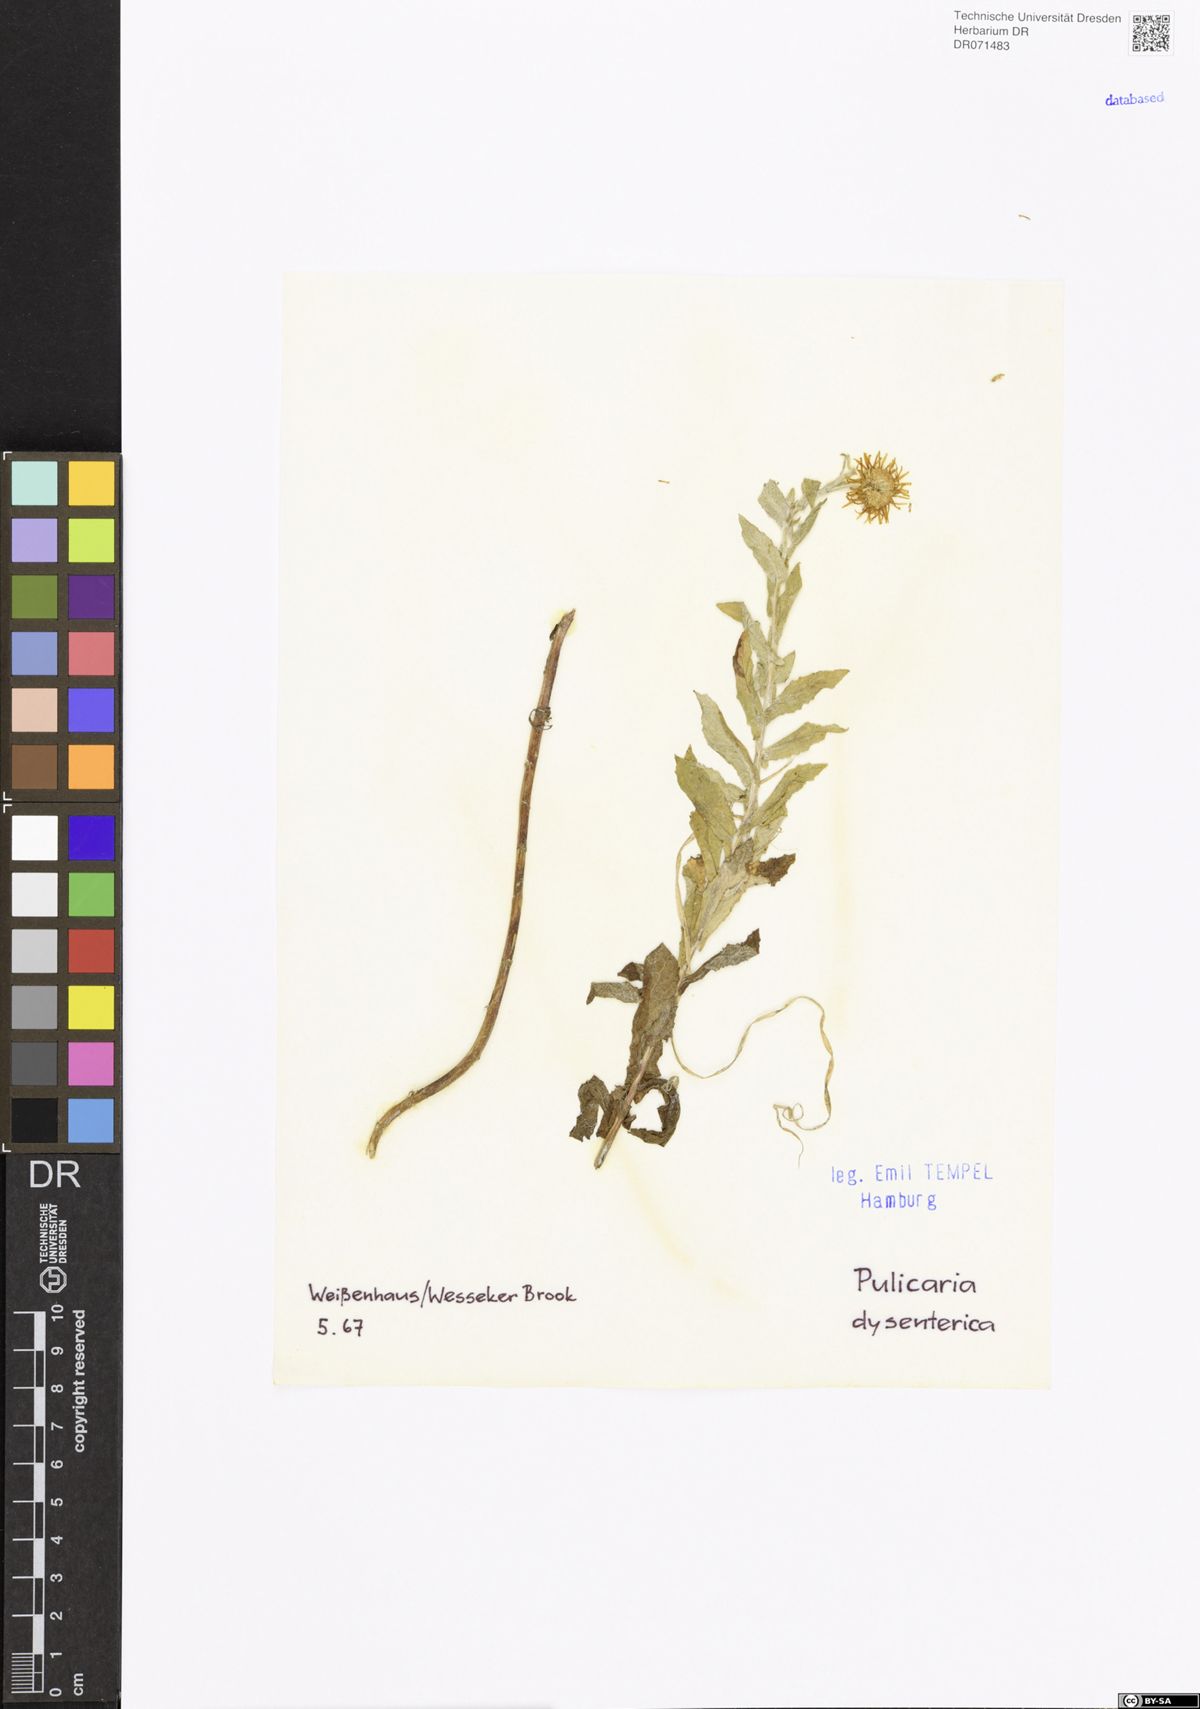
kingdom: Plantae
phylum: Tracheophyta
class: Magnoliopsida
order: Asterales
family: Asteraceae
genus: Pulicaria
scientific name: Pulicaria dysenterica
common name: Common fleabane
